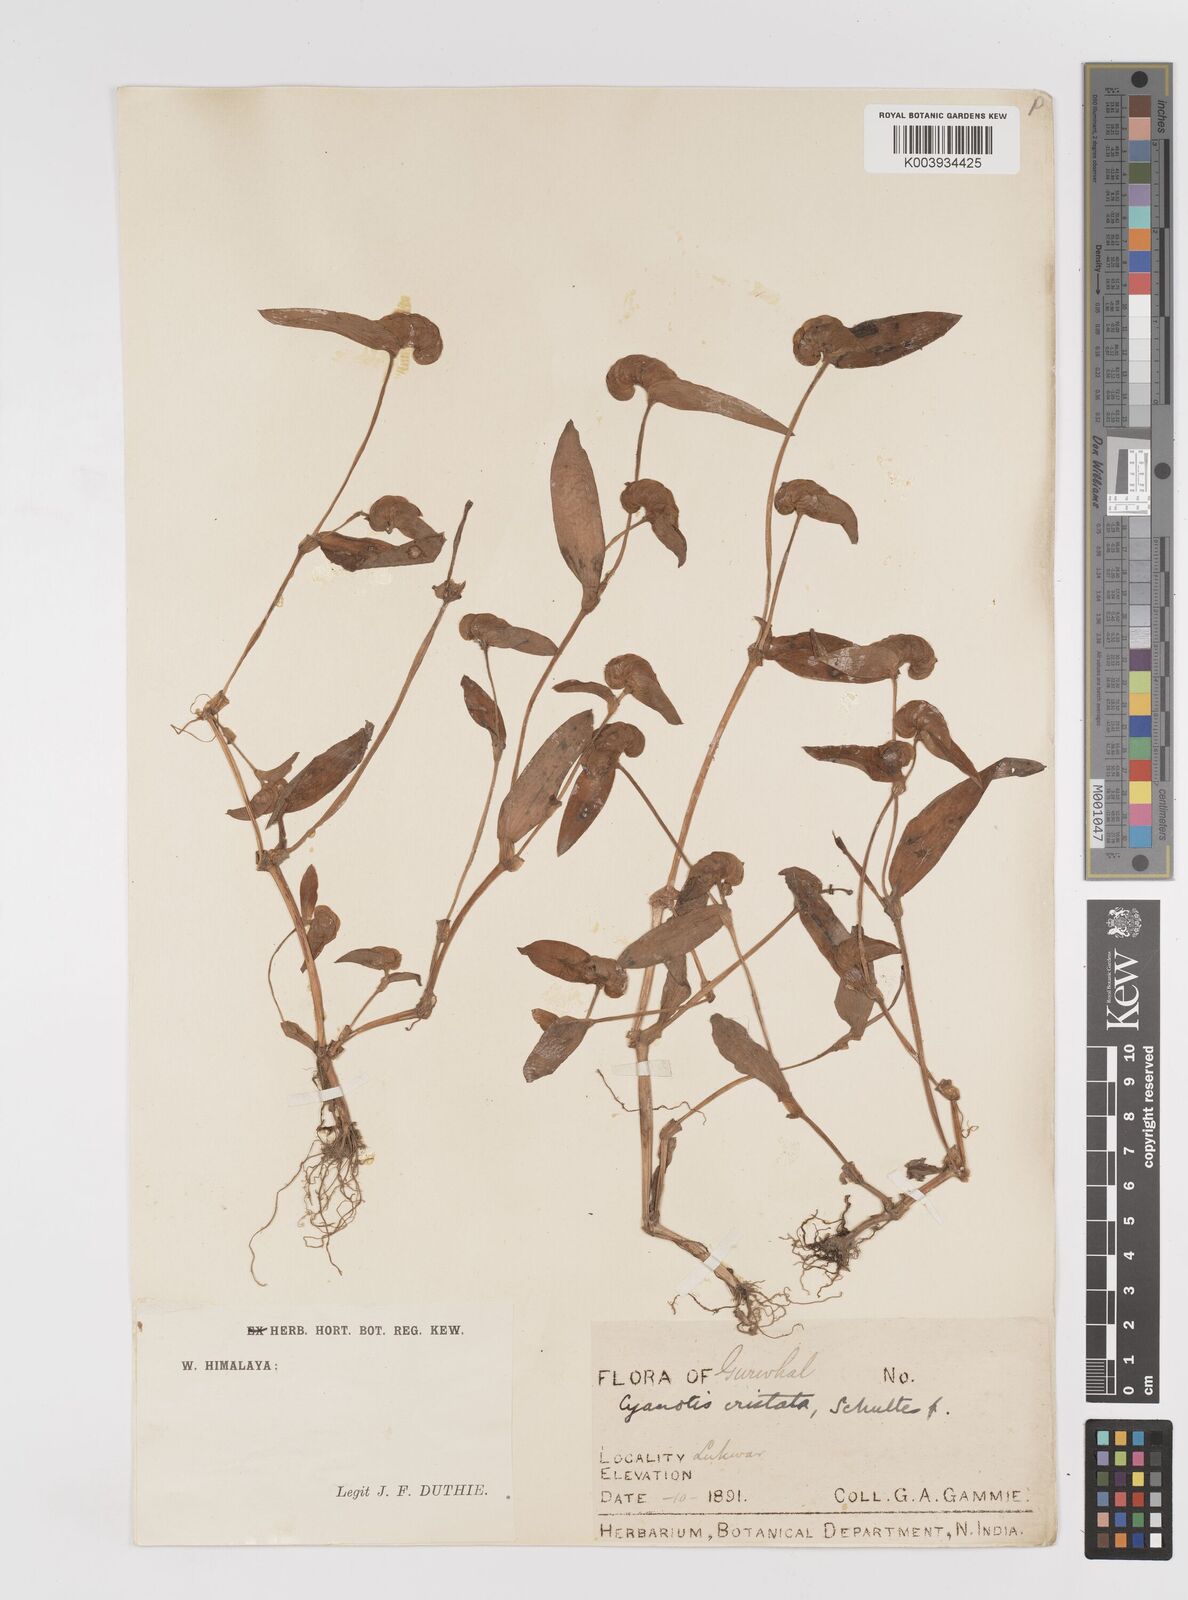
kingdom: Plantae
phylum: Tracheophyta
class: Liliopsida
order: Commelinales
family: Commelinaceae
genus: Cyanotis
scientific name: Cyanotis cristata
